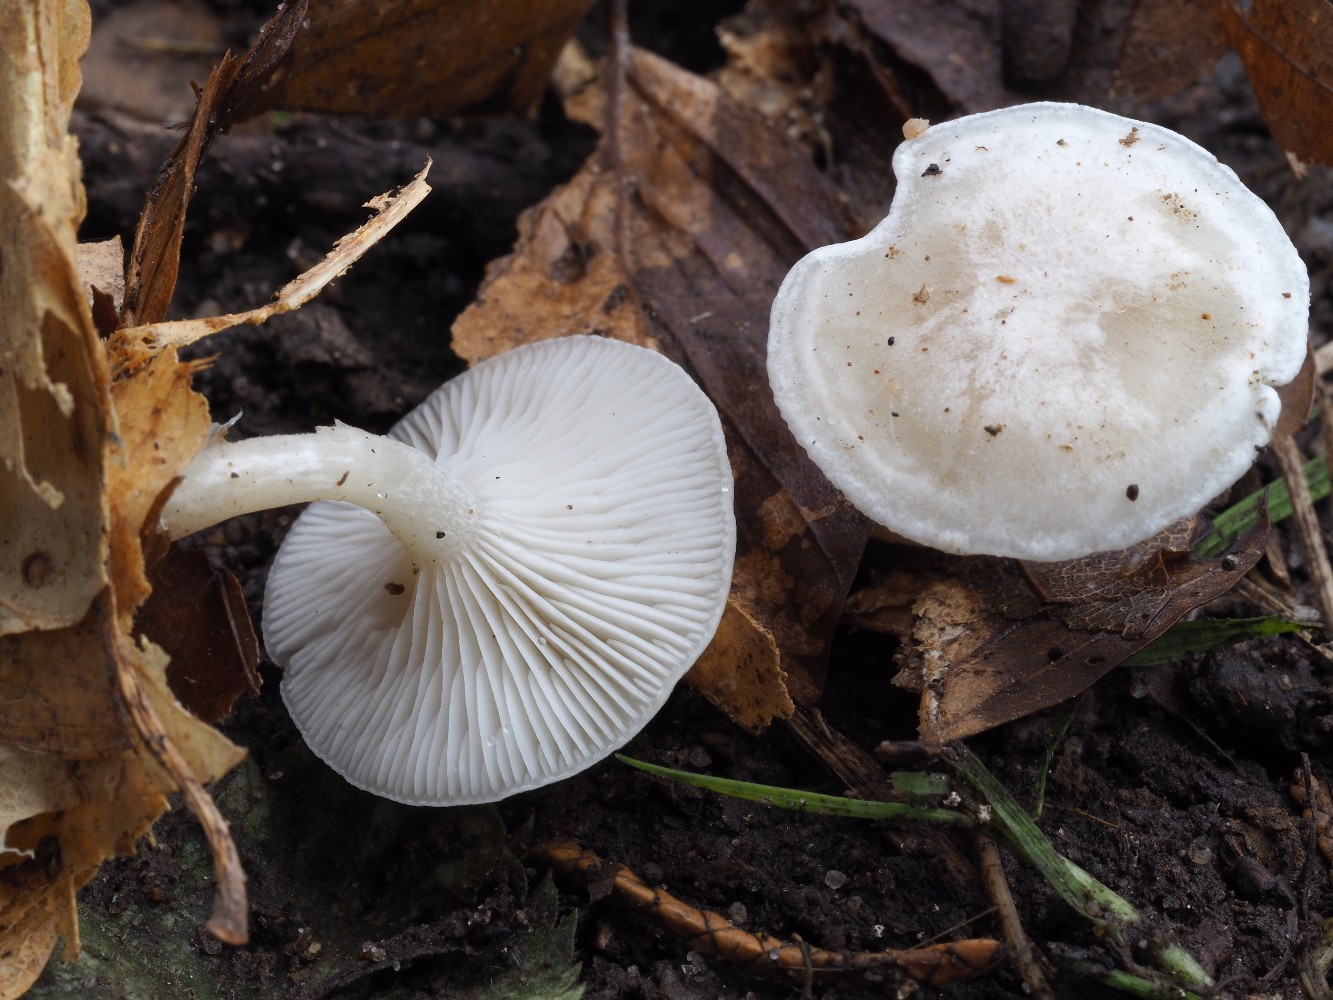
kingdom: Fungi
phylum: Basidiomycota
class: Agaricomycetes
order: Agaricales
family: Tricholomataceae
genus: Leucocybe
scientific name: Leucocybe candicans
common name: kridt-tragthat
